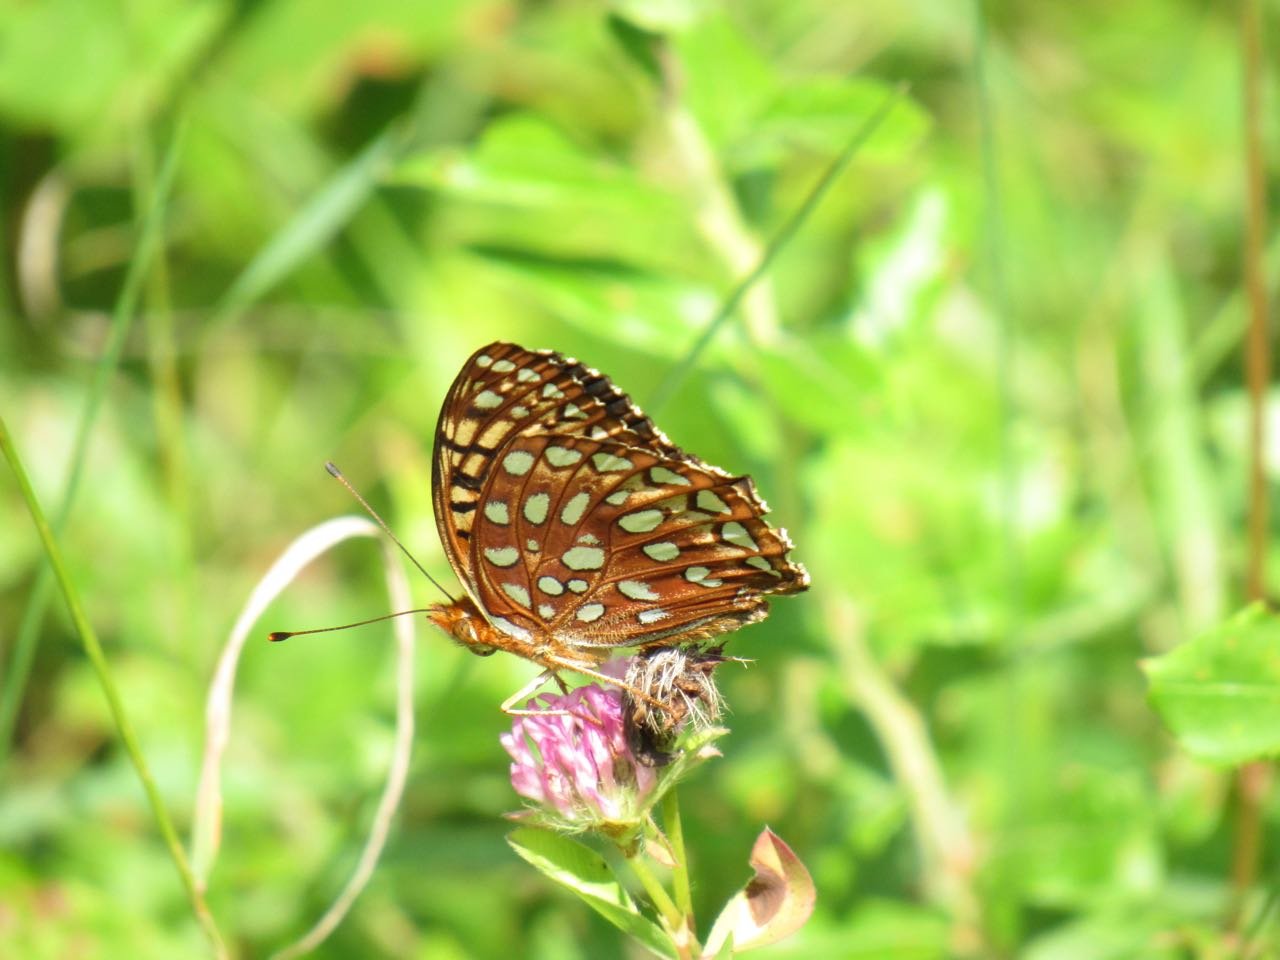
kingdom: Animalia
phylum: Arthropoda
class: Insecta
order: Lepidoptera
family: Nymphalidae
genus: Speyeria
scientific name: Speyeria aphrodite
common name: Aphrodite Fritillary
